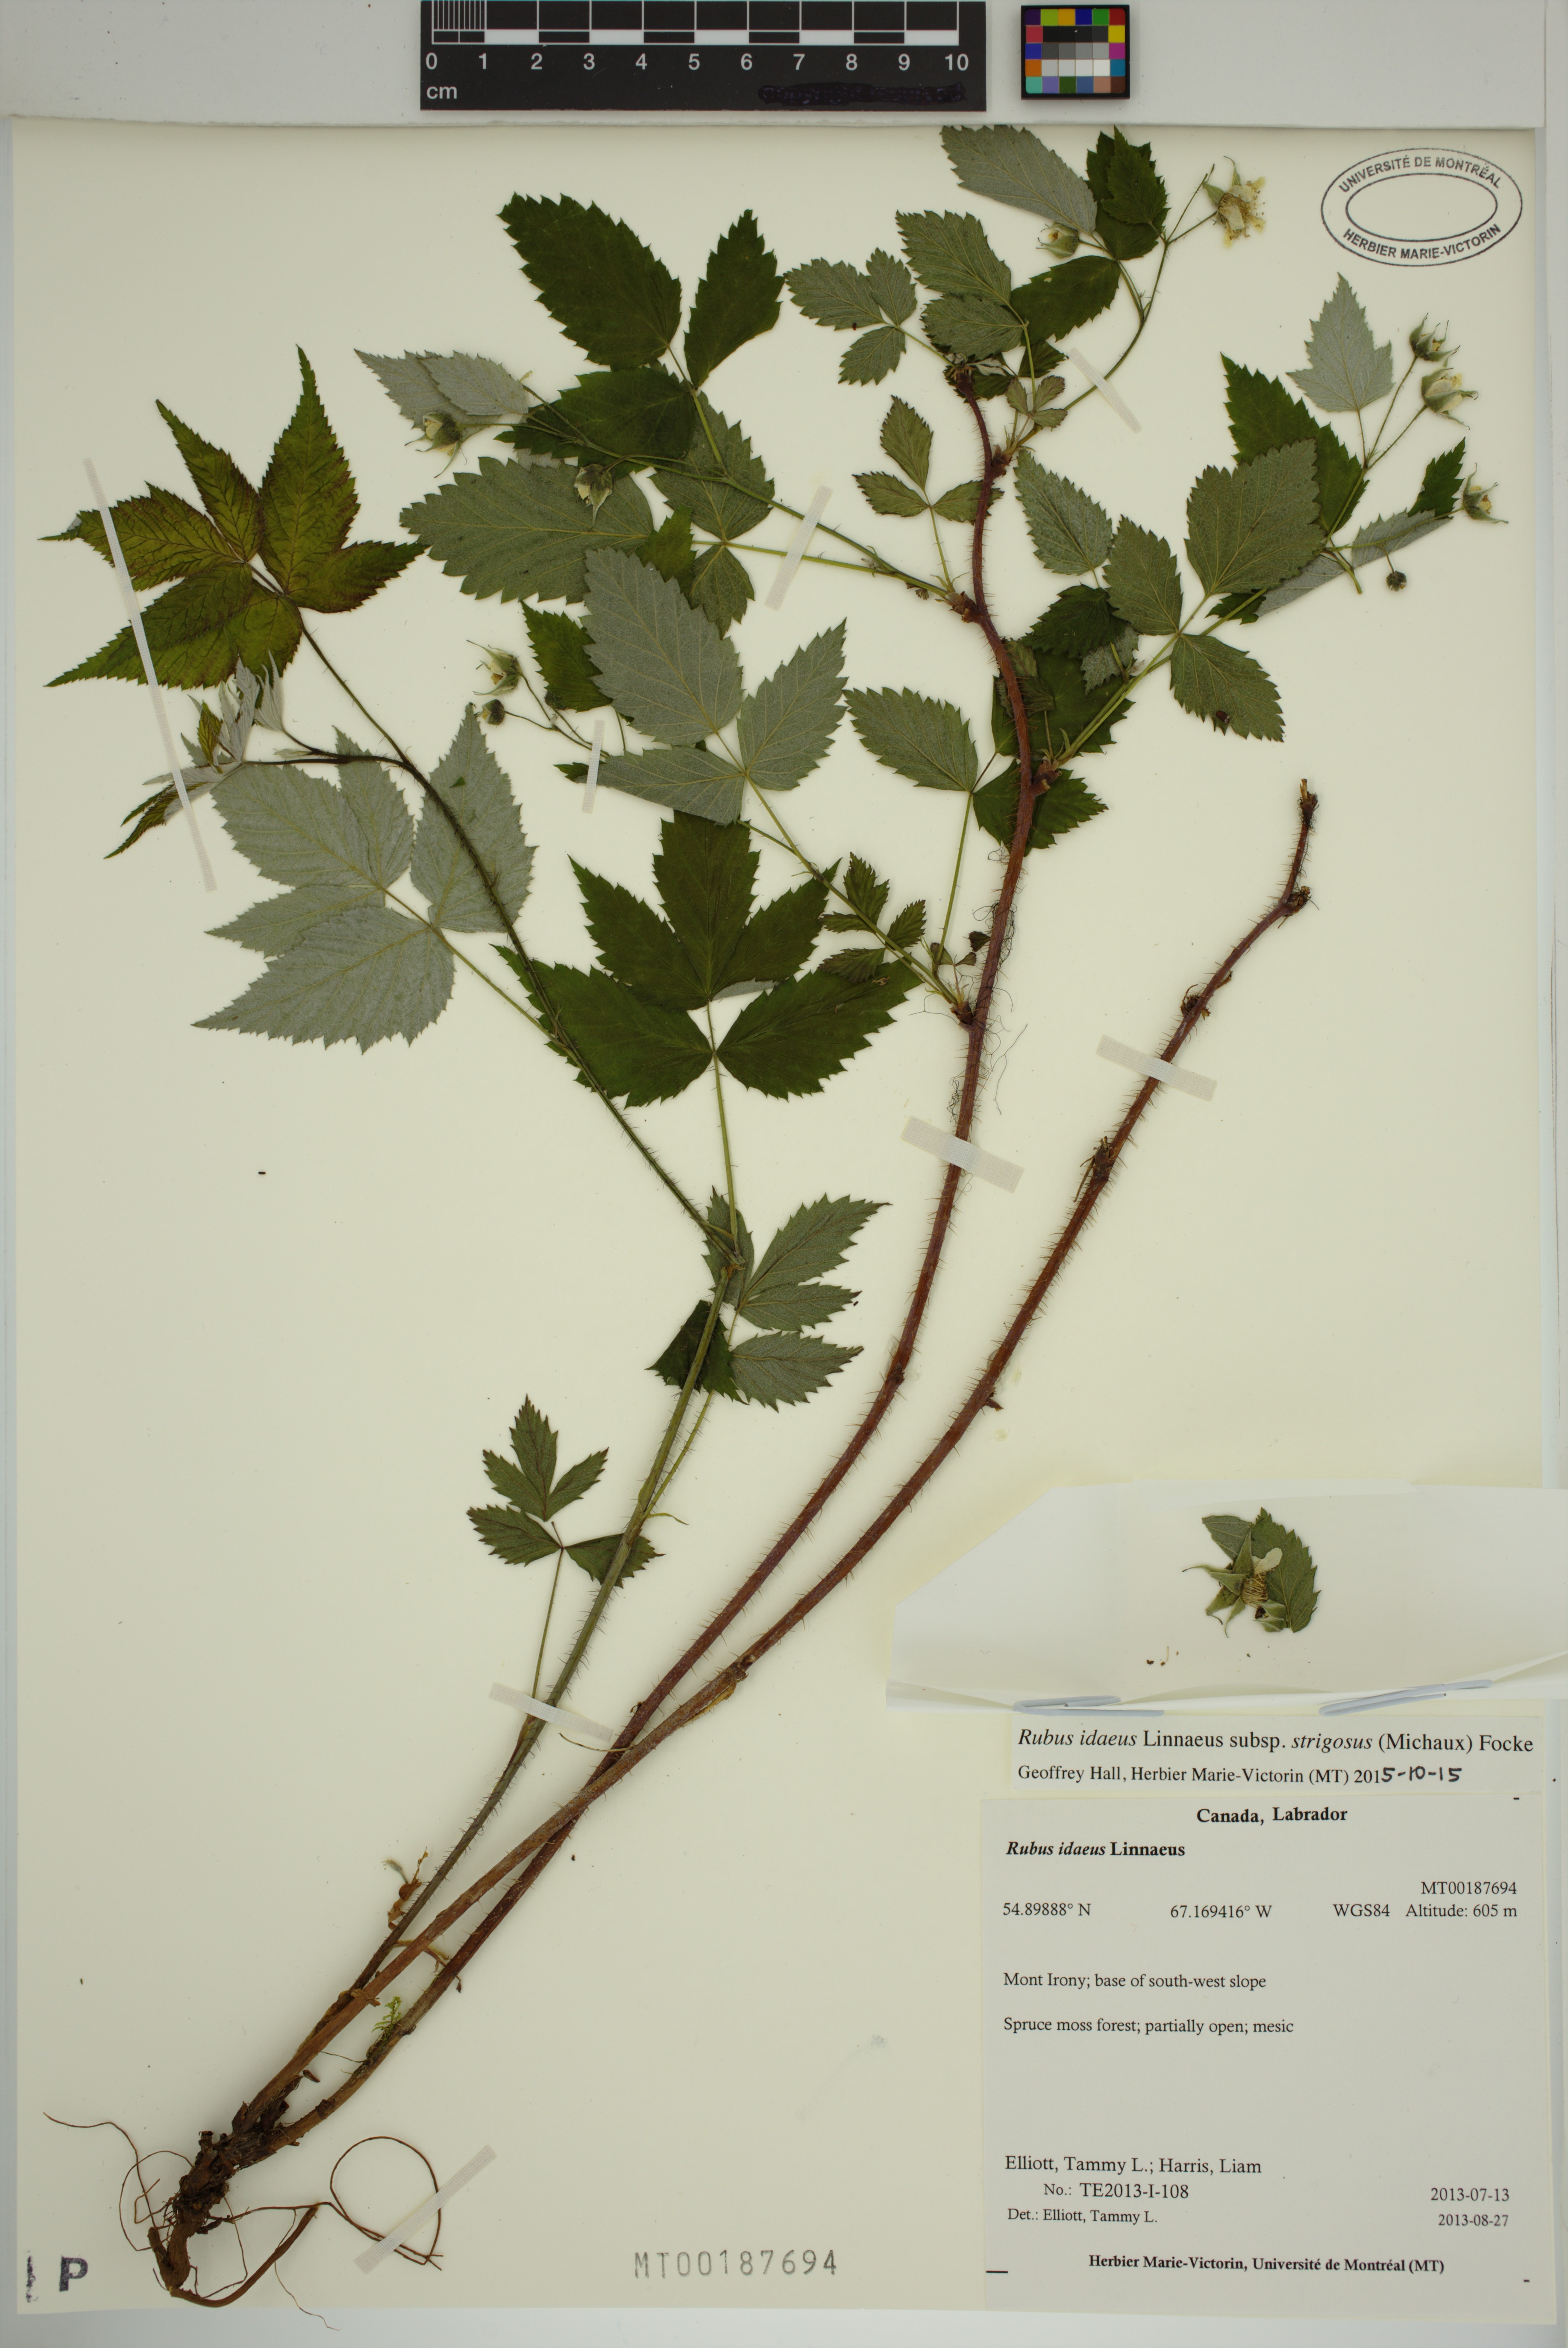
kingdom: Plantae
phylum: Tracheophyta
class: Magnoliopsida
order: Rosales
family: Rosaceae
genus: Rubus
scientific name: Rubus sachalinensis
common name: Red raspberry
